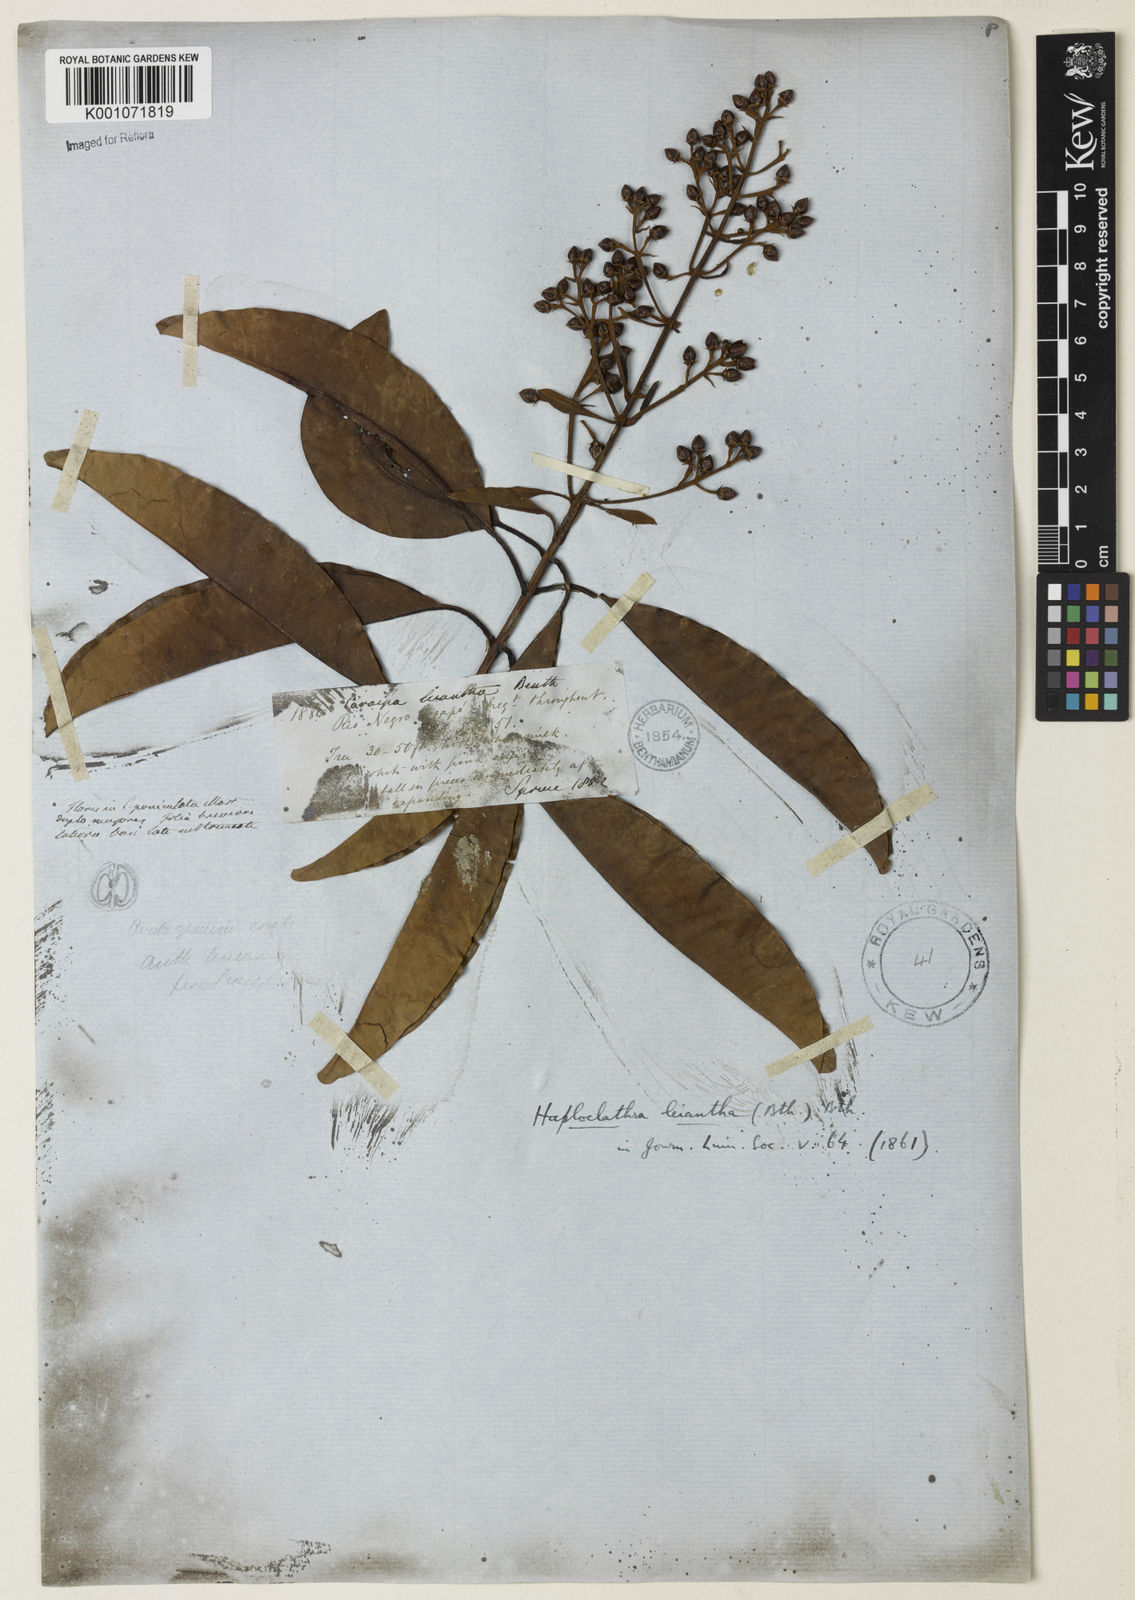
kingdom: Plantae
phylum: Tracheophyta
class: Magnoliopsida
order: Malpighiales
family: Calophyllaceae
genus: Haploclathra
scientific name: Haploclathra leiantha
